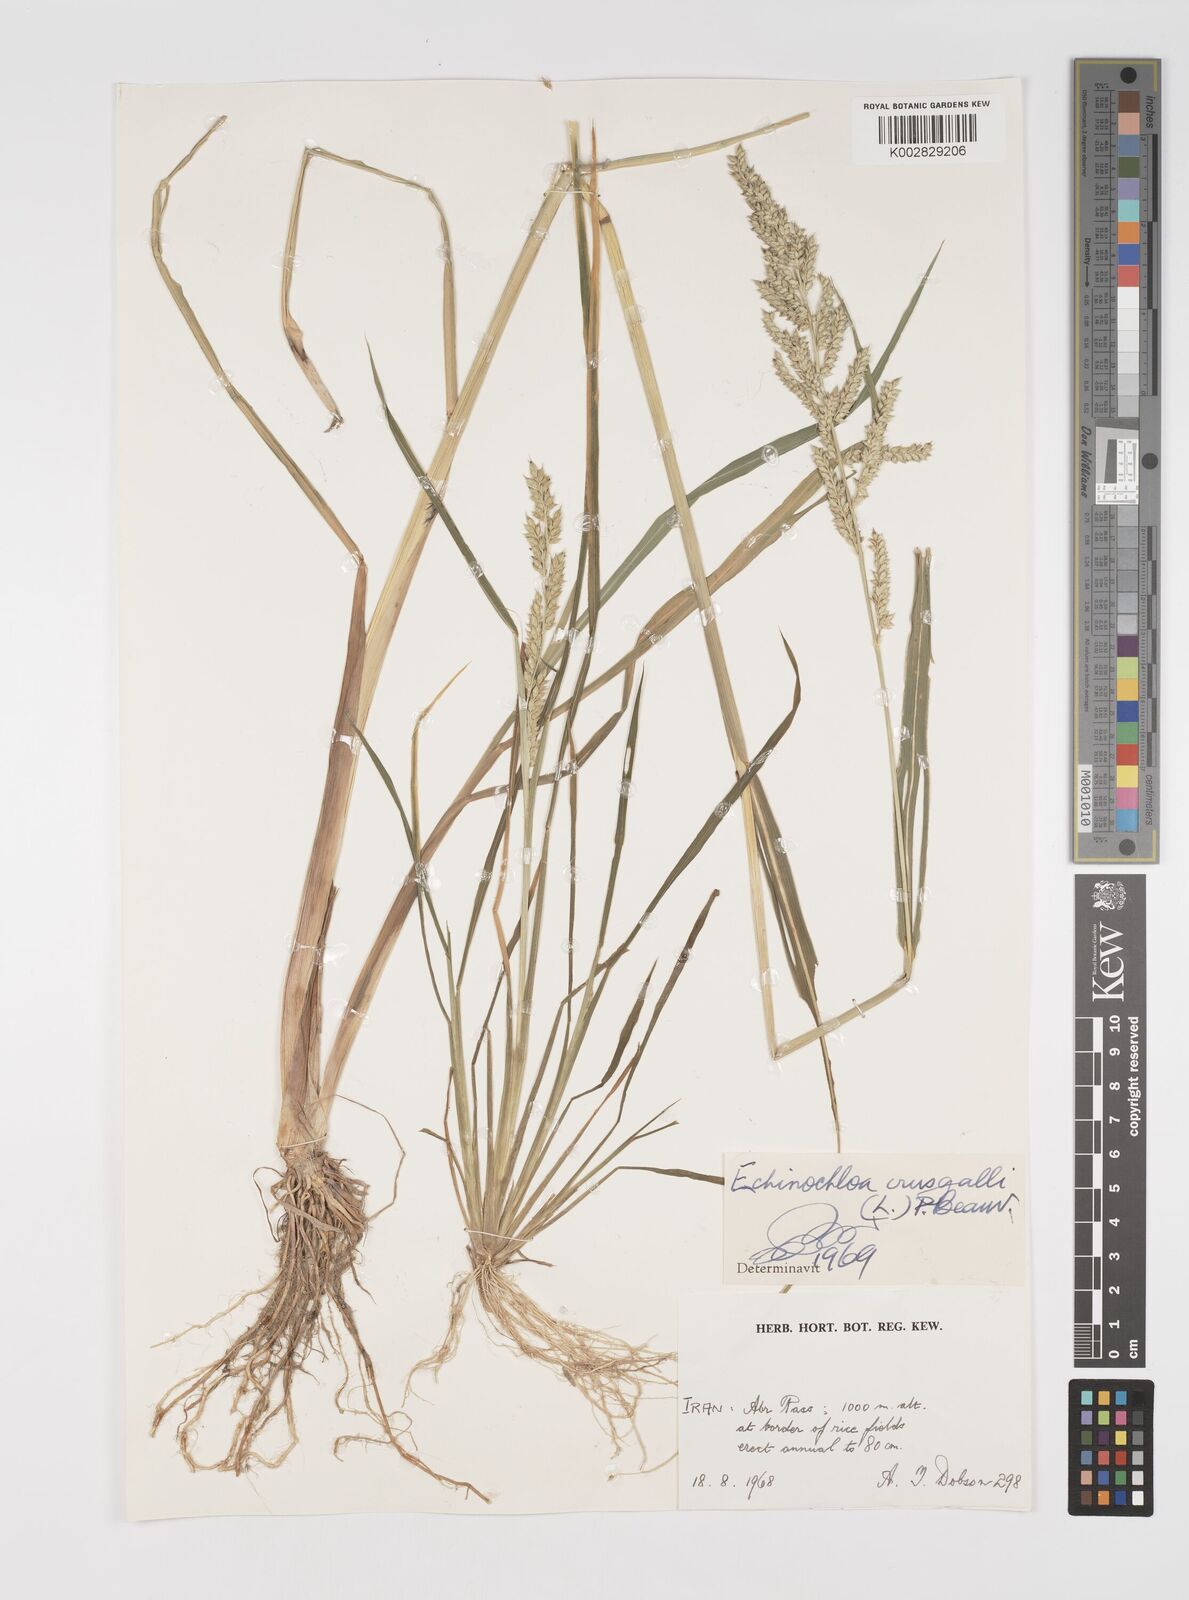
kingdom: Plantae
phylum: Tracheophyta
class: Liliopsida
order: Poales
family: Poaceae
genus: Echinochloa
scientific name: Echinochloa crus-galli
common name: Cockspur
